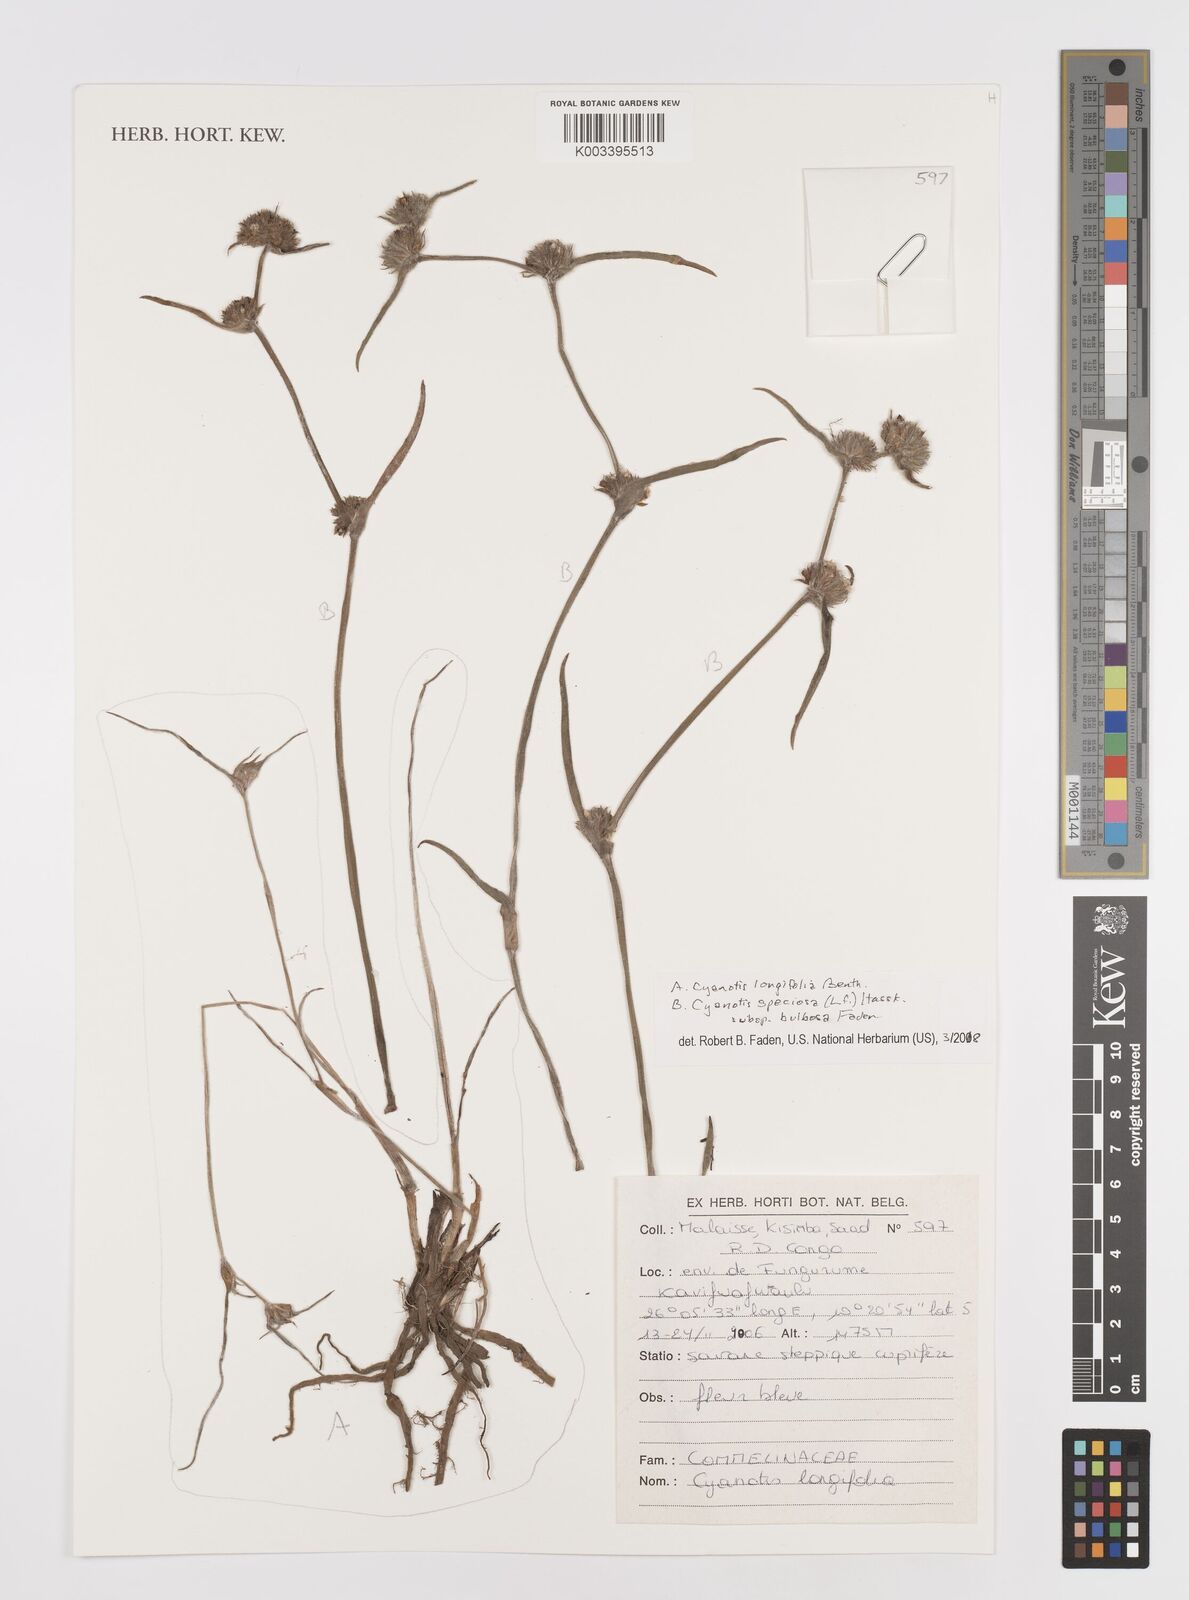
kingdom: Plantae
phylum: Tracheophyta
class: Liliopsida
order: Commelinales
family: Commelinaceae
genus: Cyanotis
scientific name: Cyanotis speciosa
